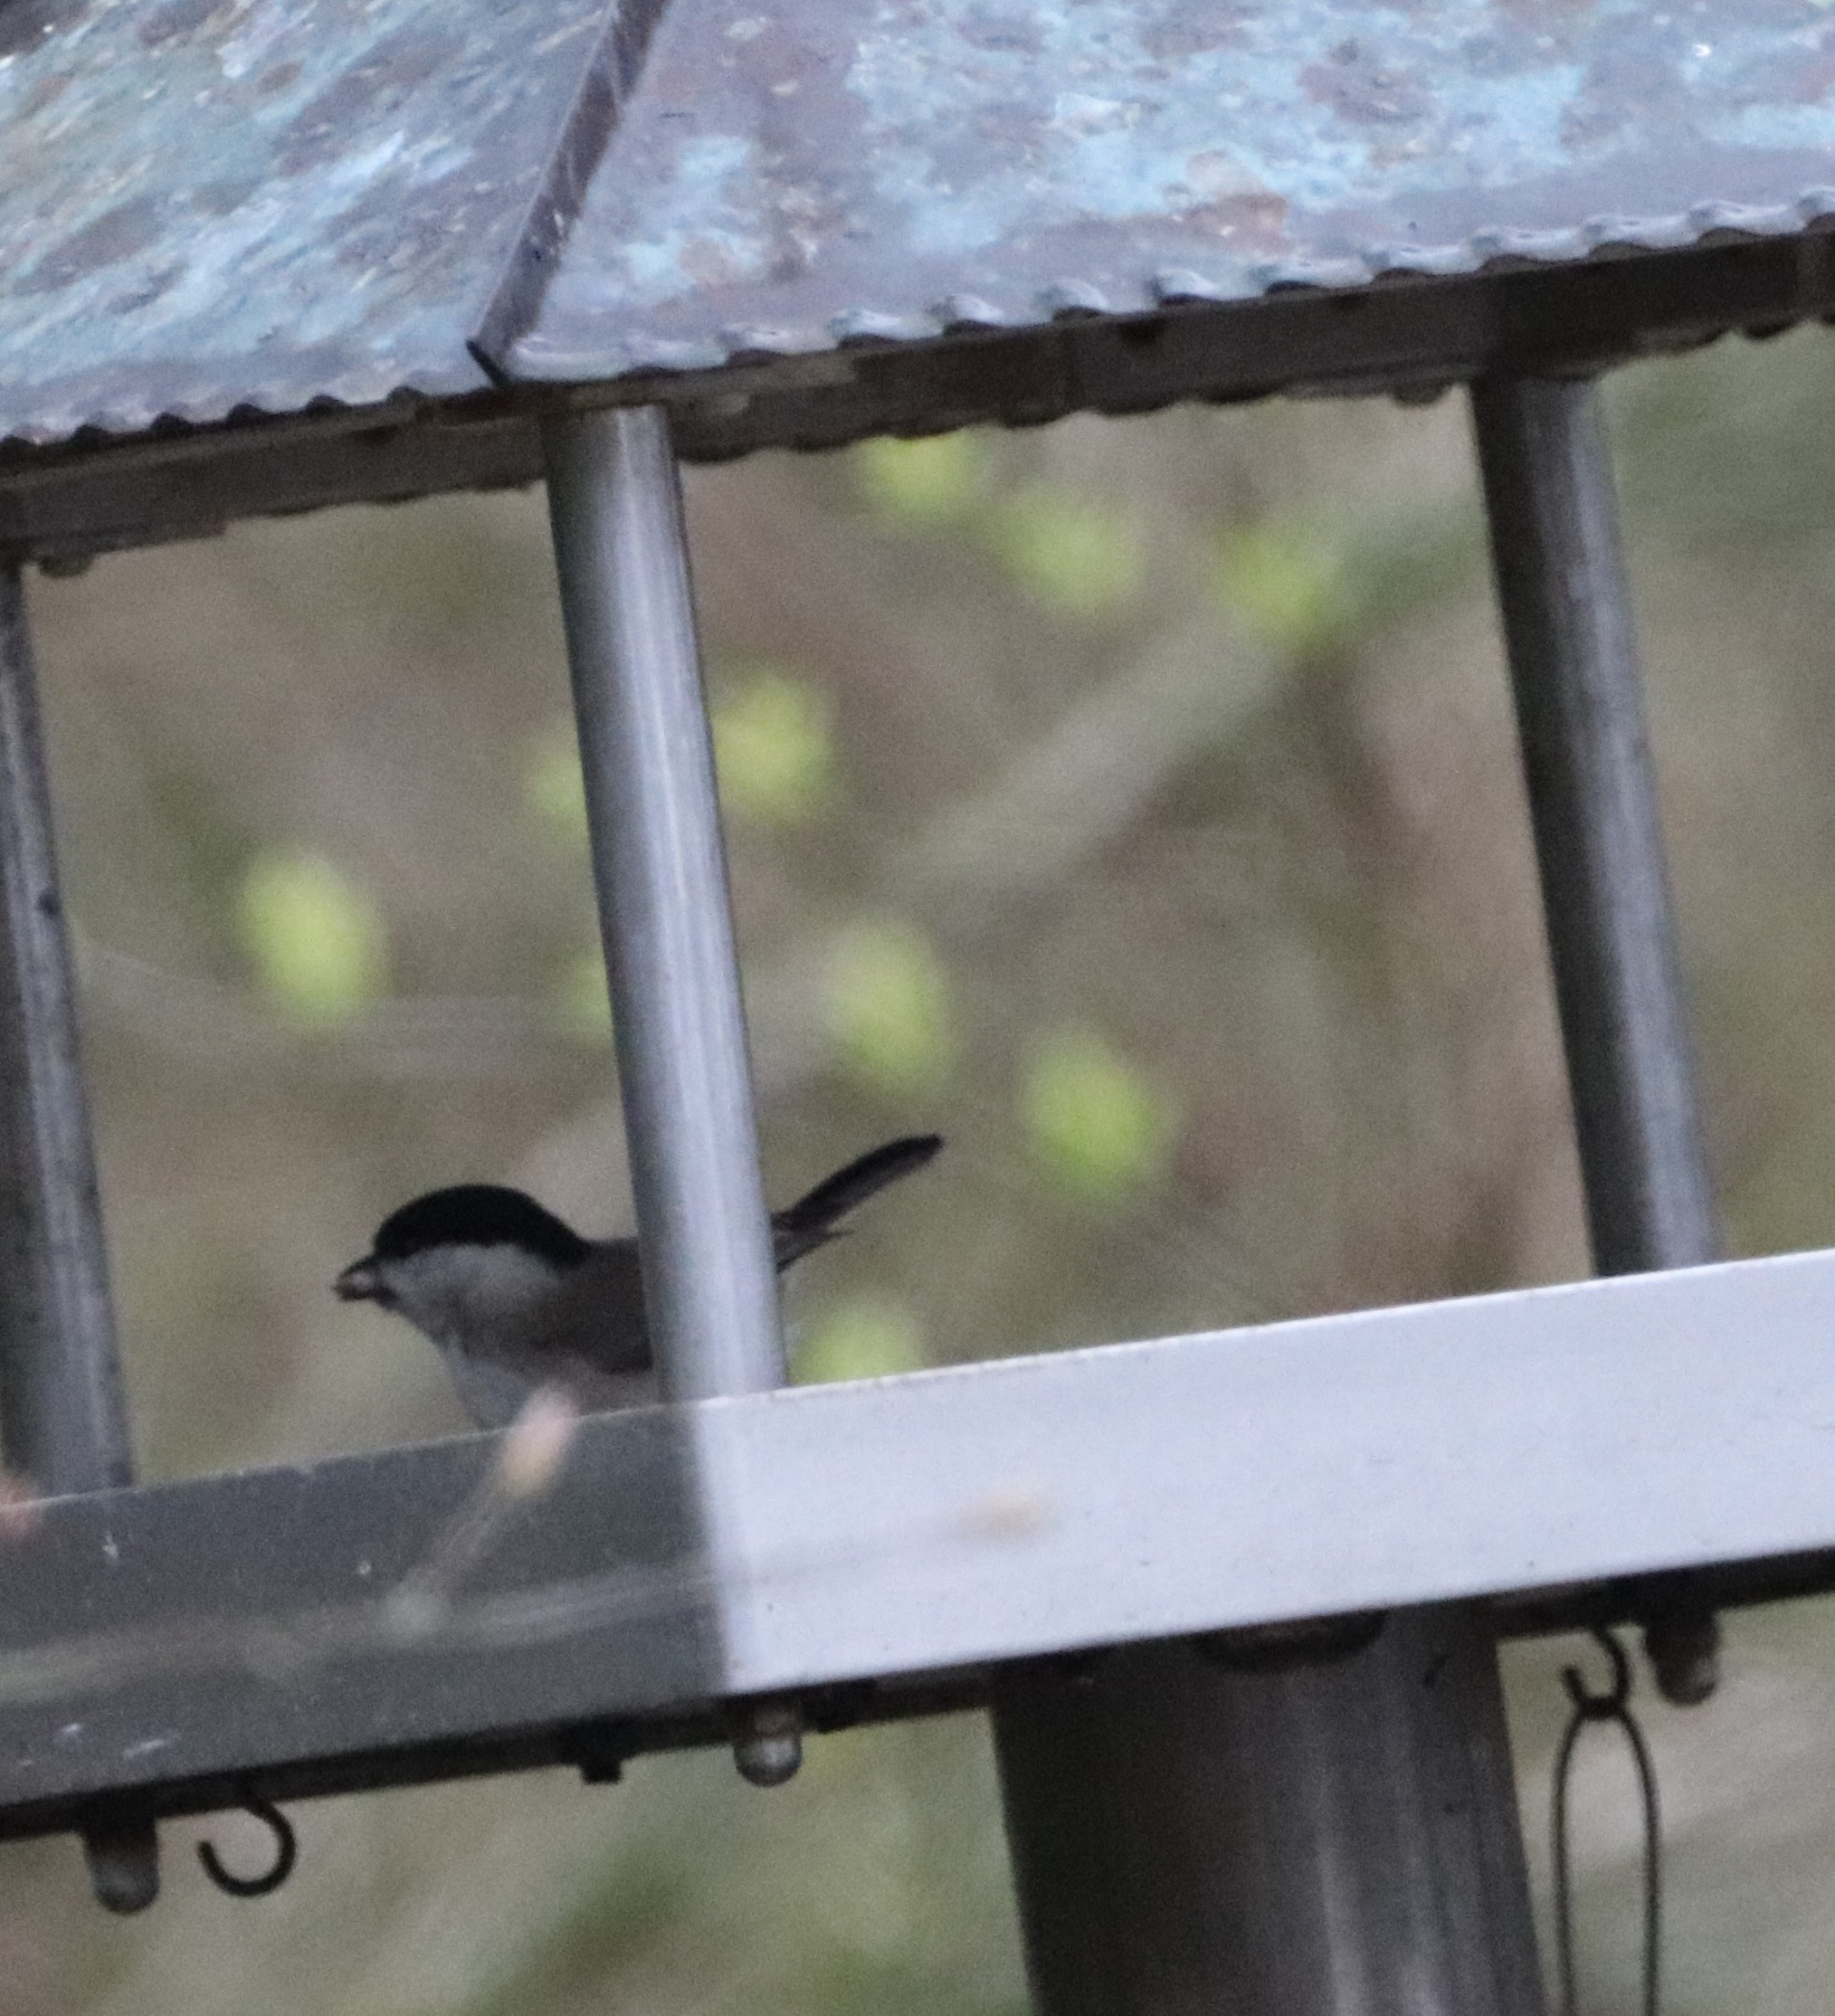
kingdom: Animalia
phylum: Chordata
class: Aves
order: Passeriformes
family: Paridae
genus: Poecile
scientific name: Poecile palustris
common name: Sumpmejse
